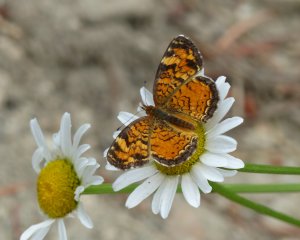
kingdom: Animalia
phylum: Arthropoda
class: Insecta
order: Lepidoptera
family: Nymphalidae
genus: Phyciodes
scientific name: Phyciodes tharos
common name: Northern Crescent
